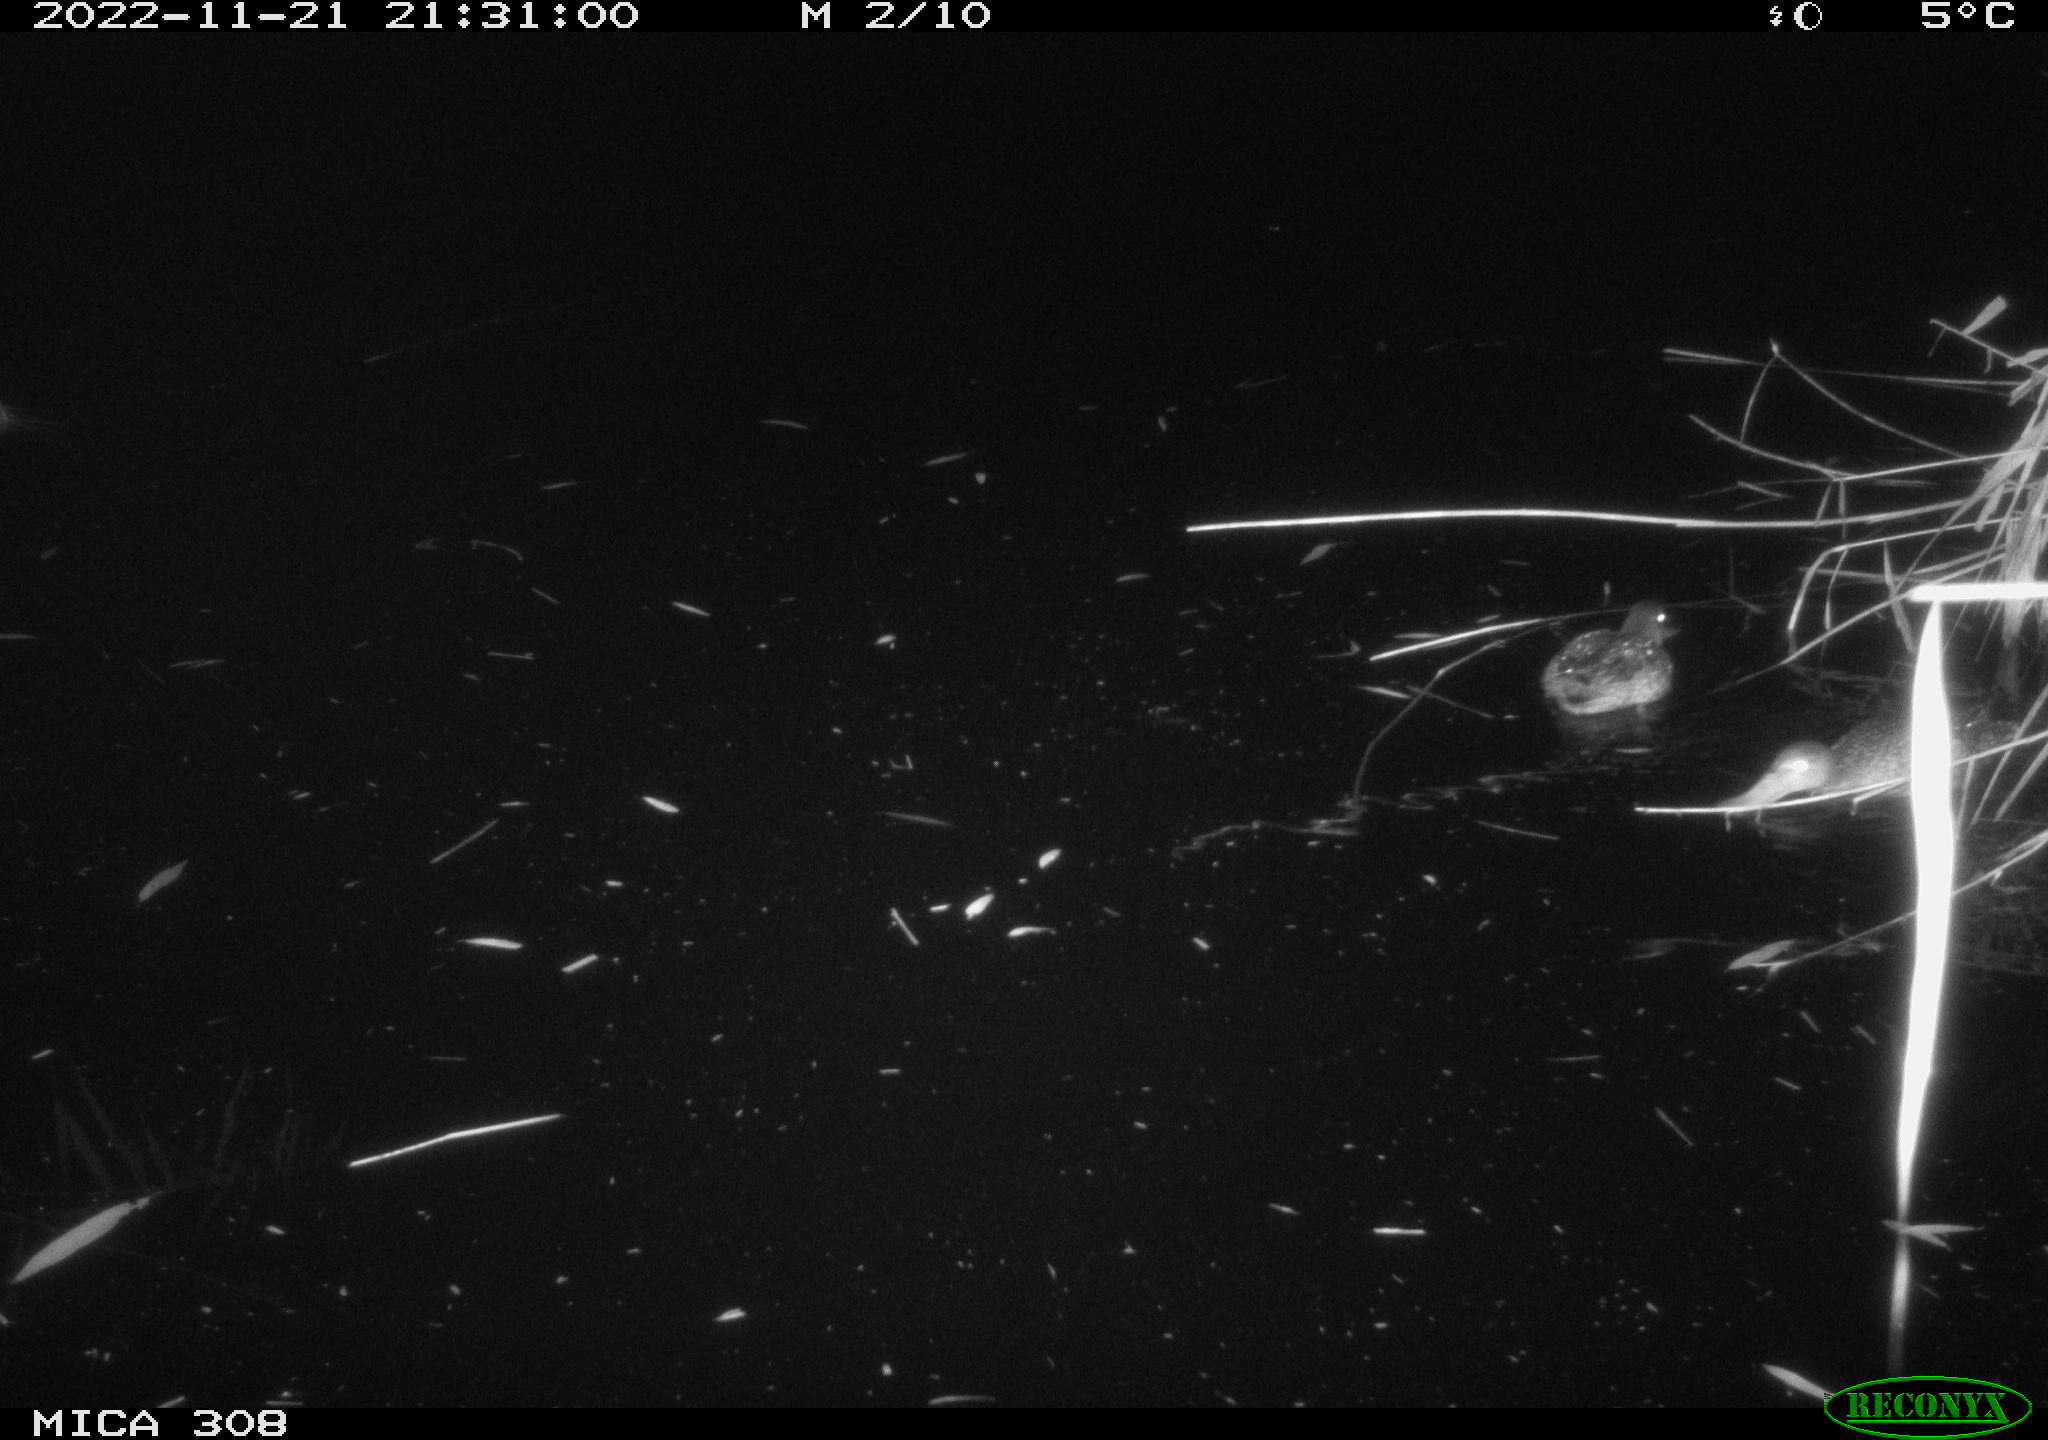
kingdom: Animalia
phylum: Chordata
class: Mammalia
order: Rodentia
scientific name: Rodentia
